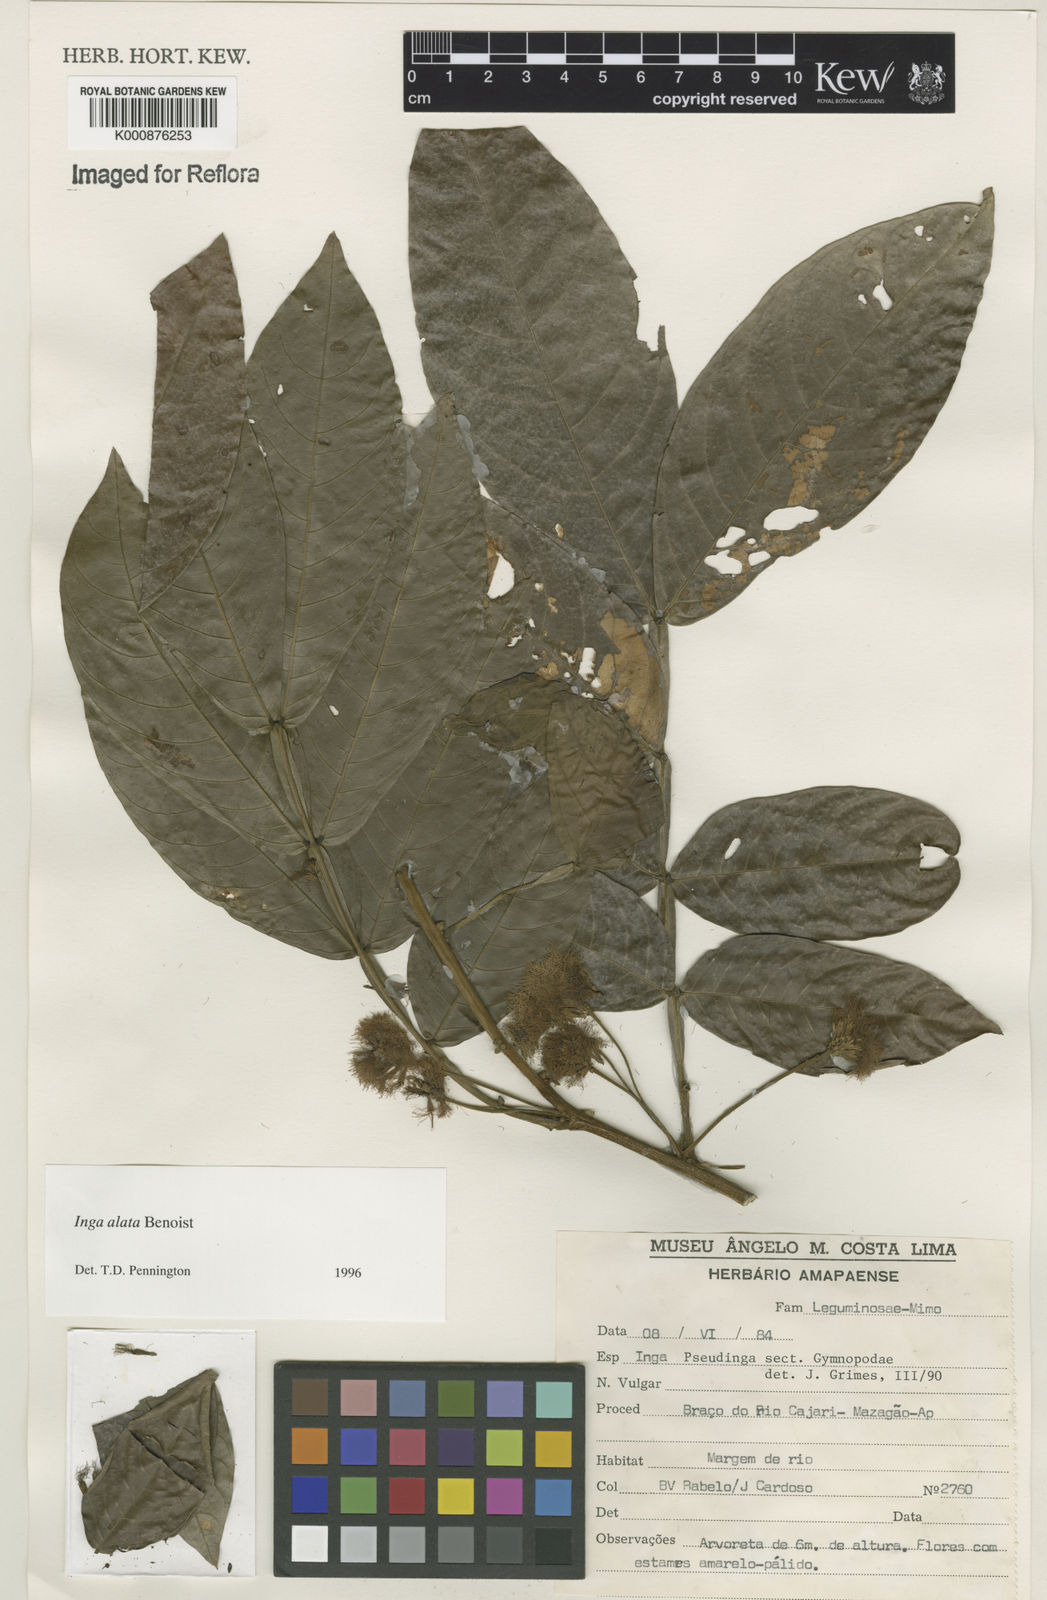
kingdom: Plantae
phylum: Tracheophyta
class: Magnoliopsida
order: Fabales
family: Fabaceae
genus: Inga
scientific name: Inga alata
